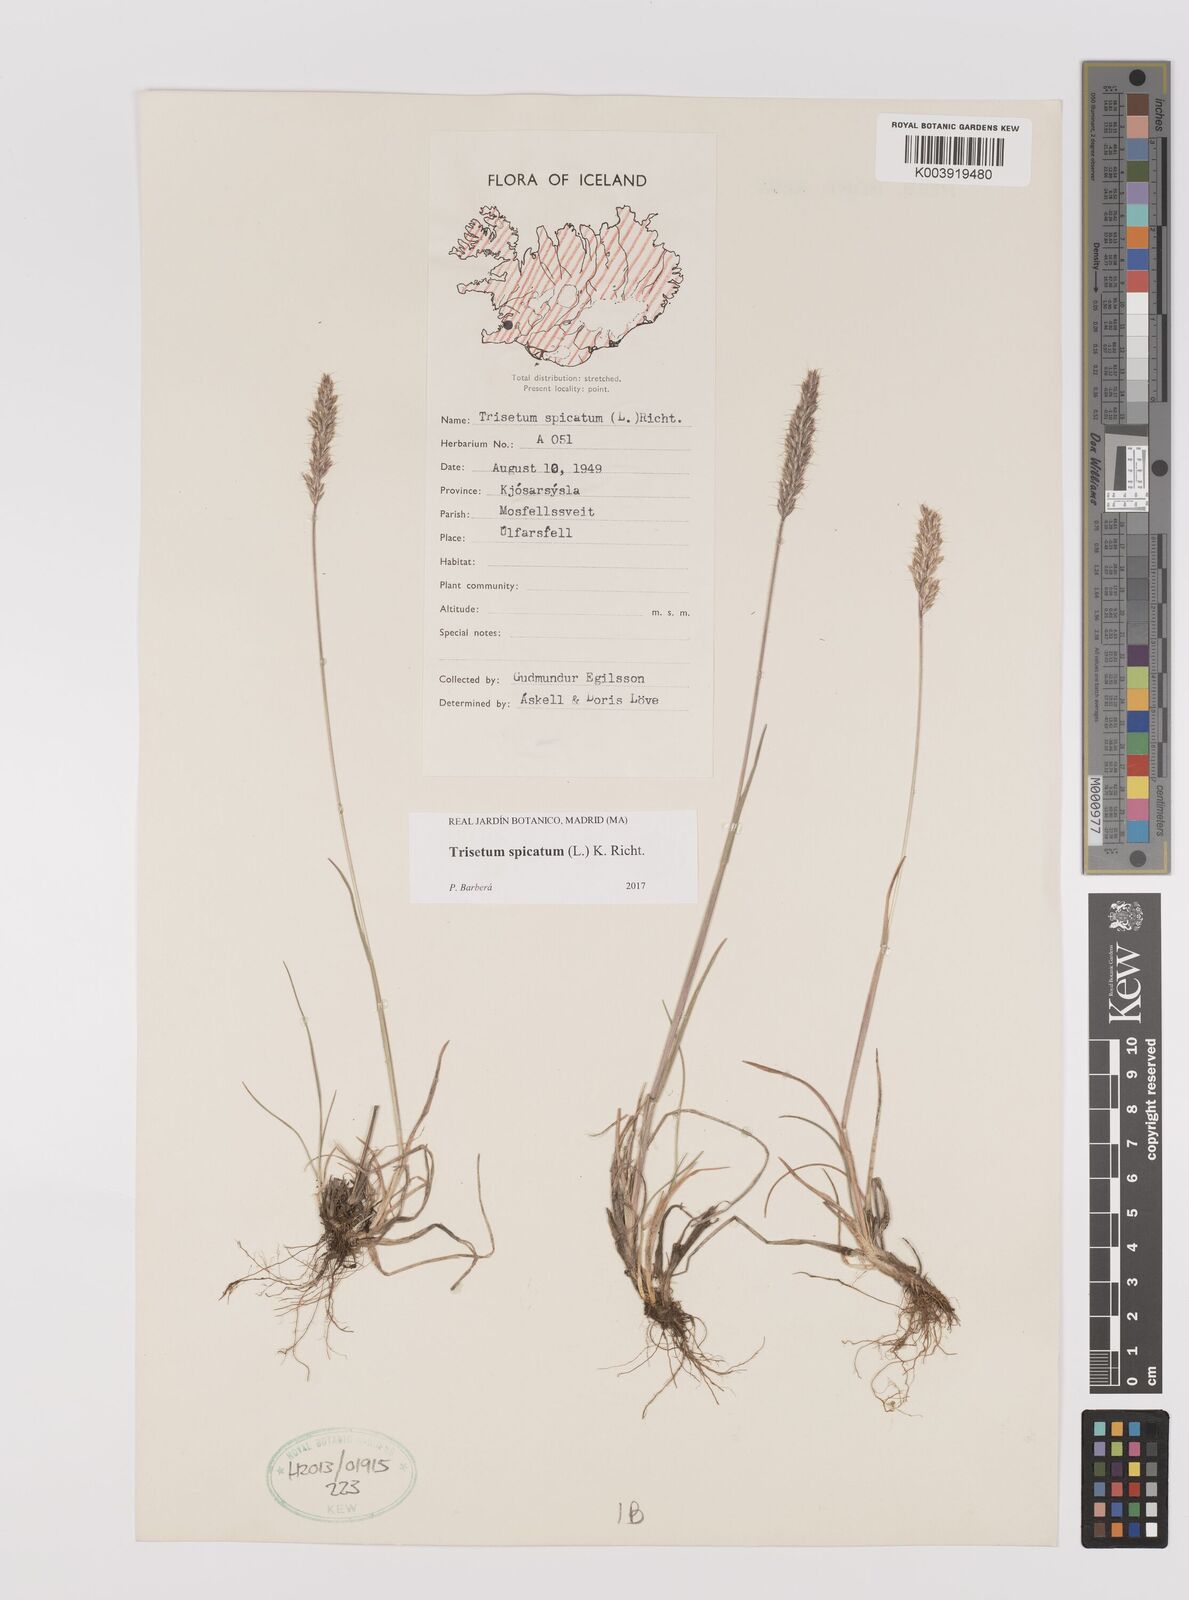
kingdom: Plantae
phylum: Tracheophyta
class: Liliopsida
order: Poales
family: Poaceae
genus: Koeleria
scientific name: Koeleria spicata
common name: Mountain trisetum
